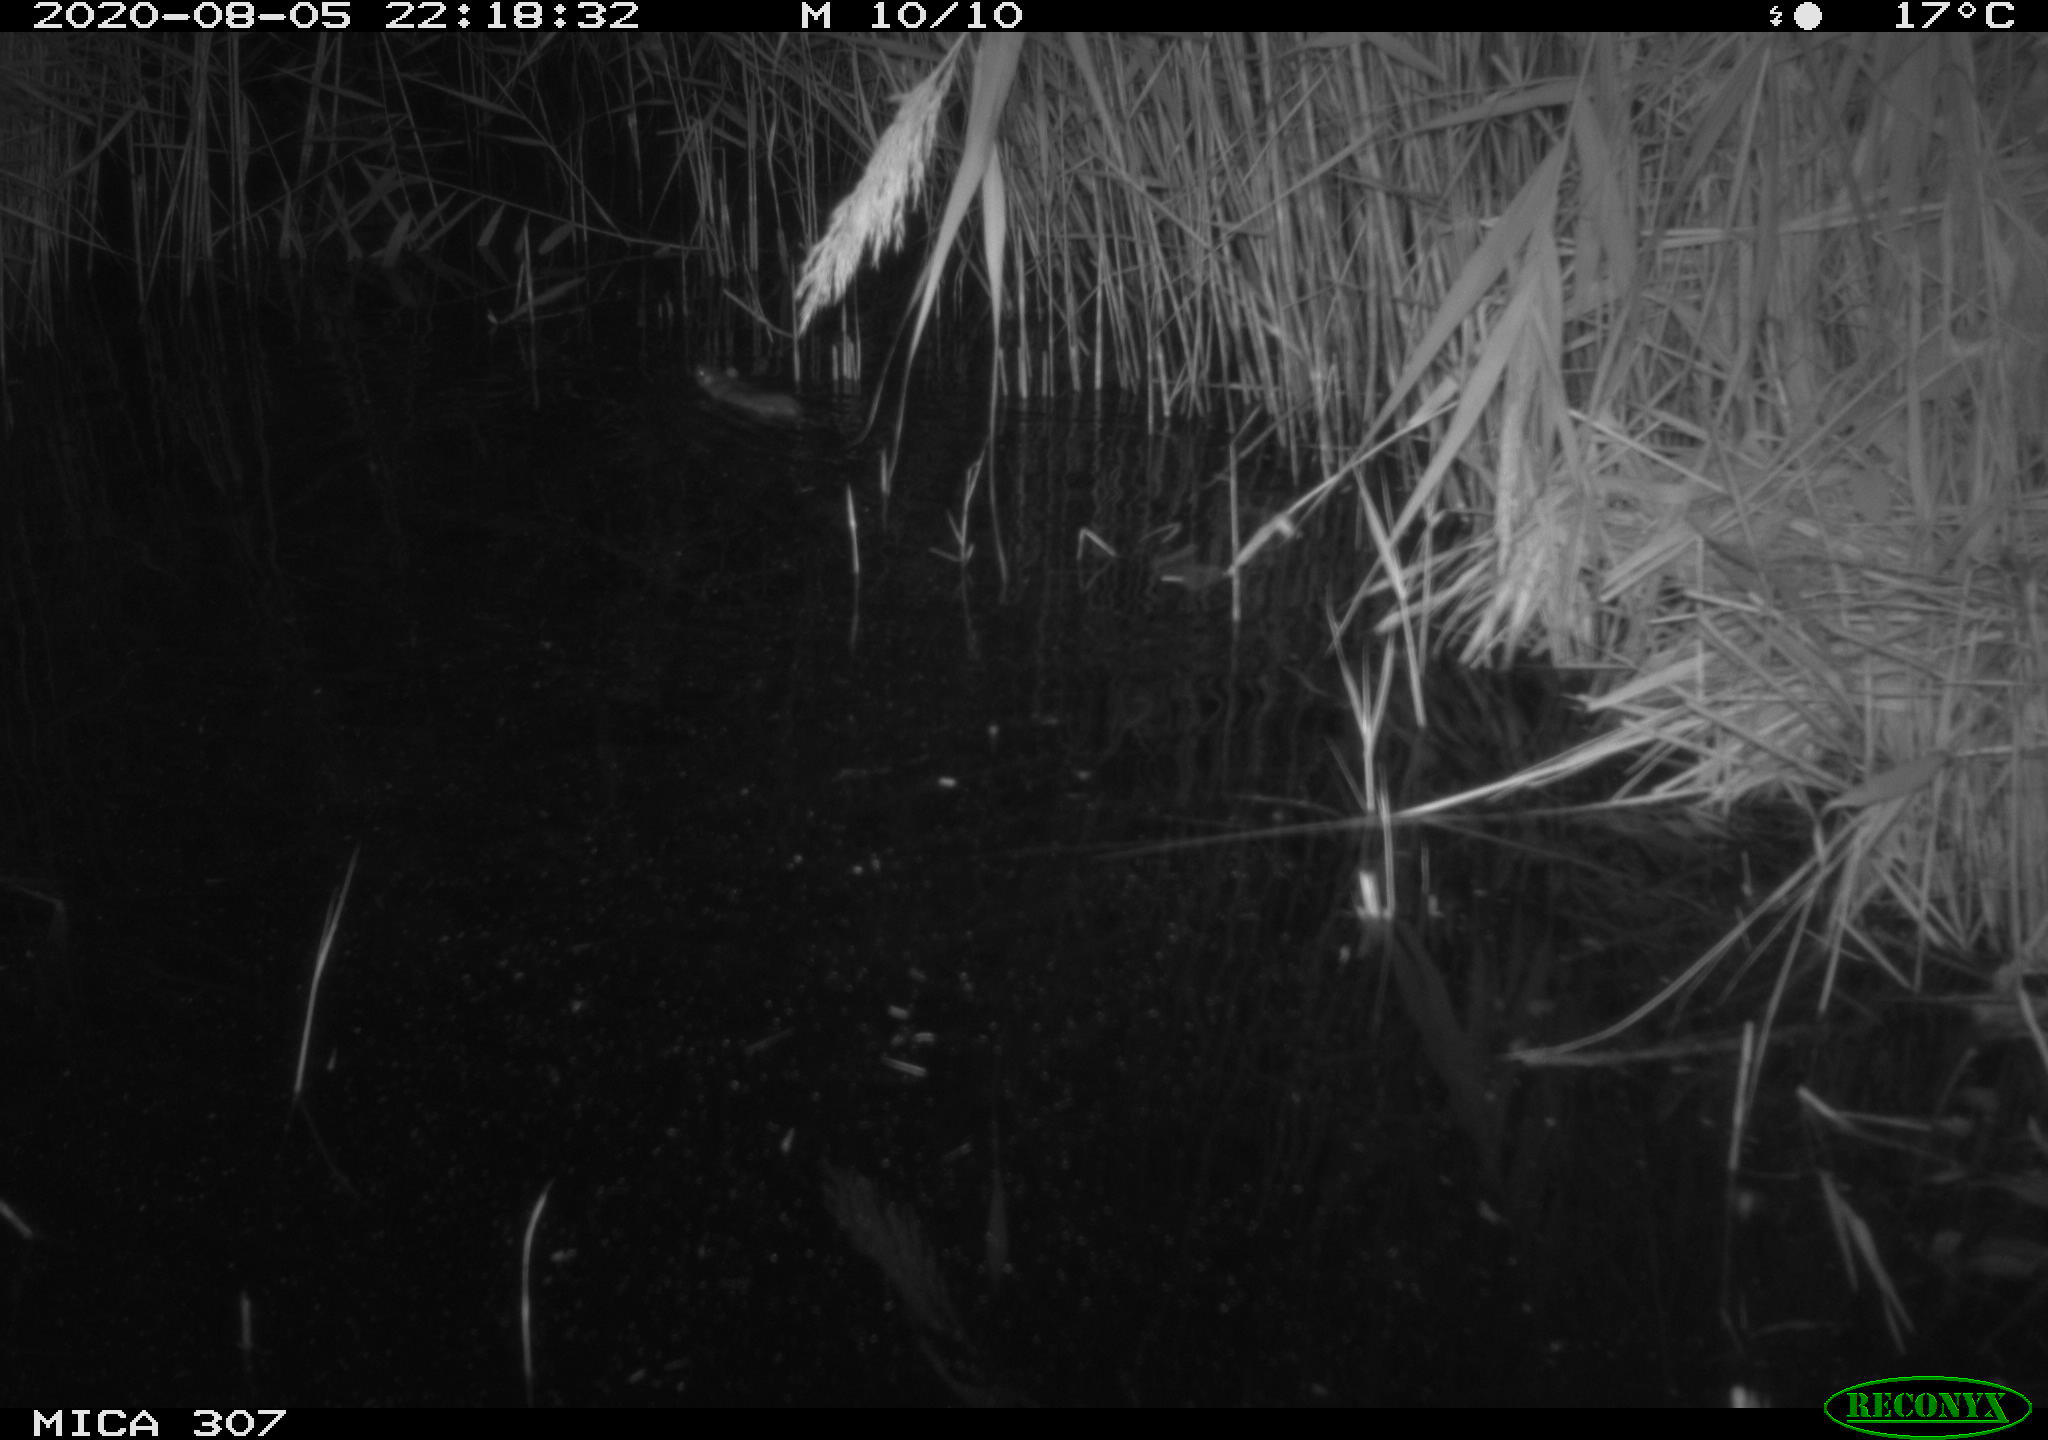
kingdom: Animalia
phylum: Chordata
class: Mammalia
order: Rodentia
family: Muridae
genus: Rattus
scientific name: Rattus norvegicus
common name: Brown rat
